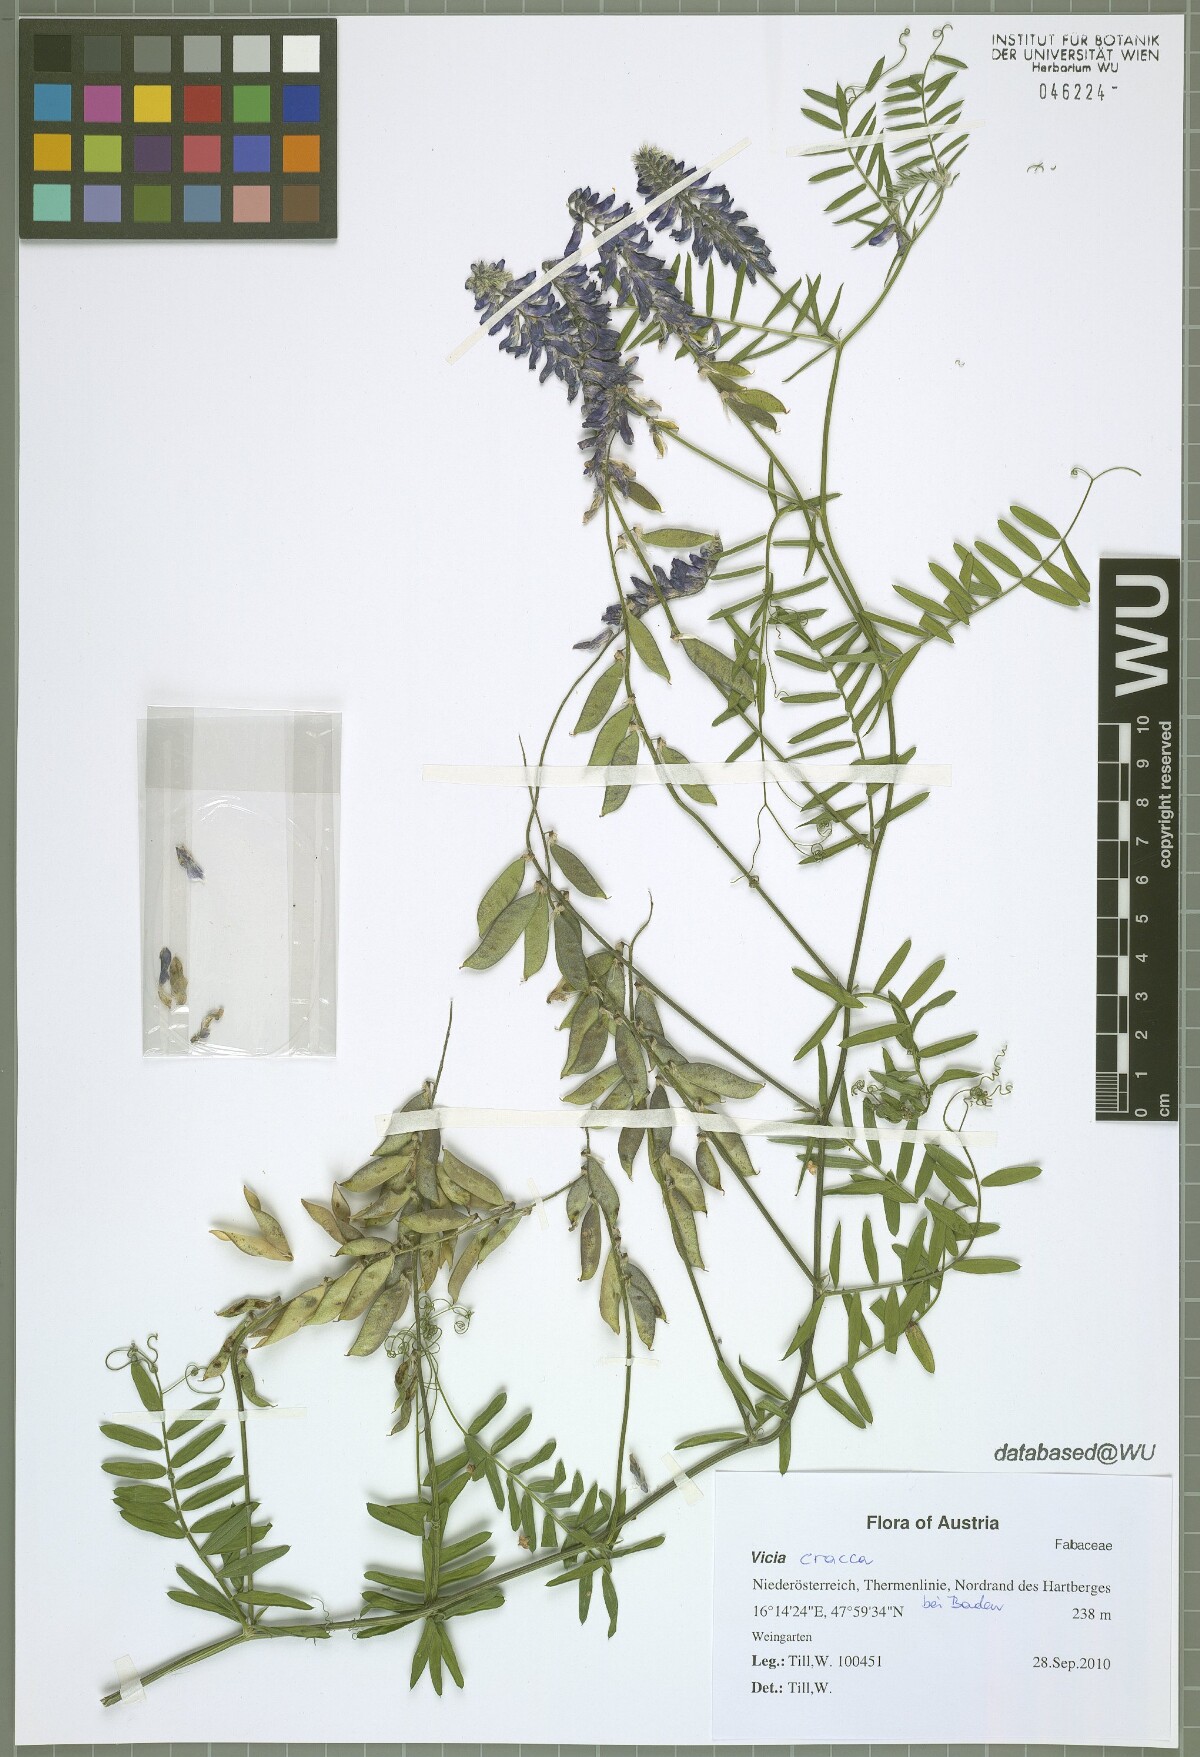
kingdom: Plantae
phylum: Tracheophyta
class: Magnoliopsida
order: Fabales
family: Fabaceae
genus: Vicia
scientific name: Vicia cracca
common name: Bird vetch
